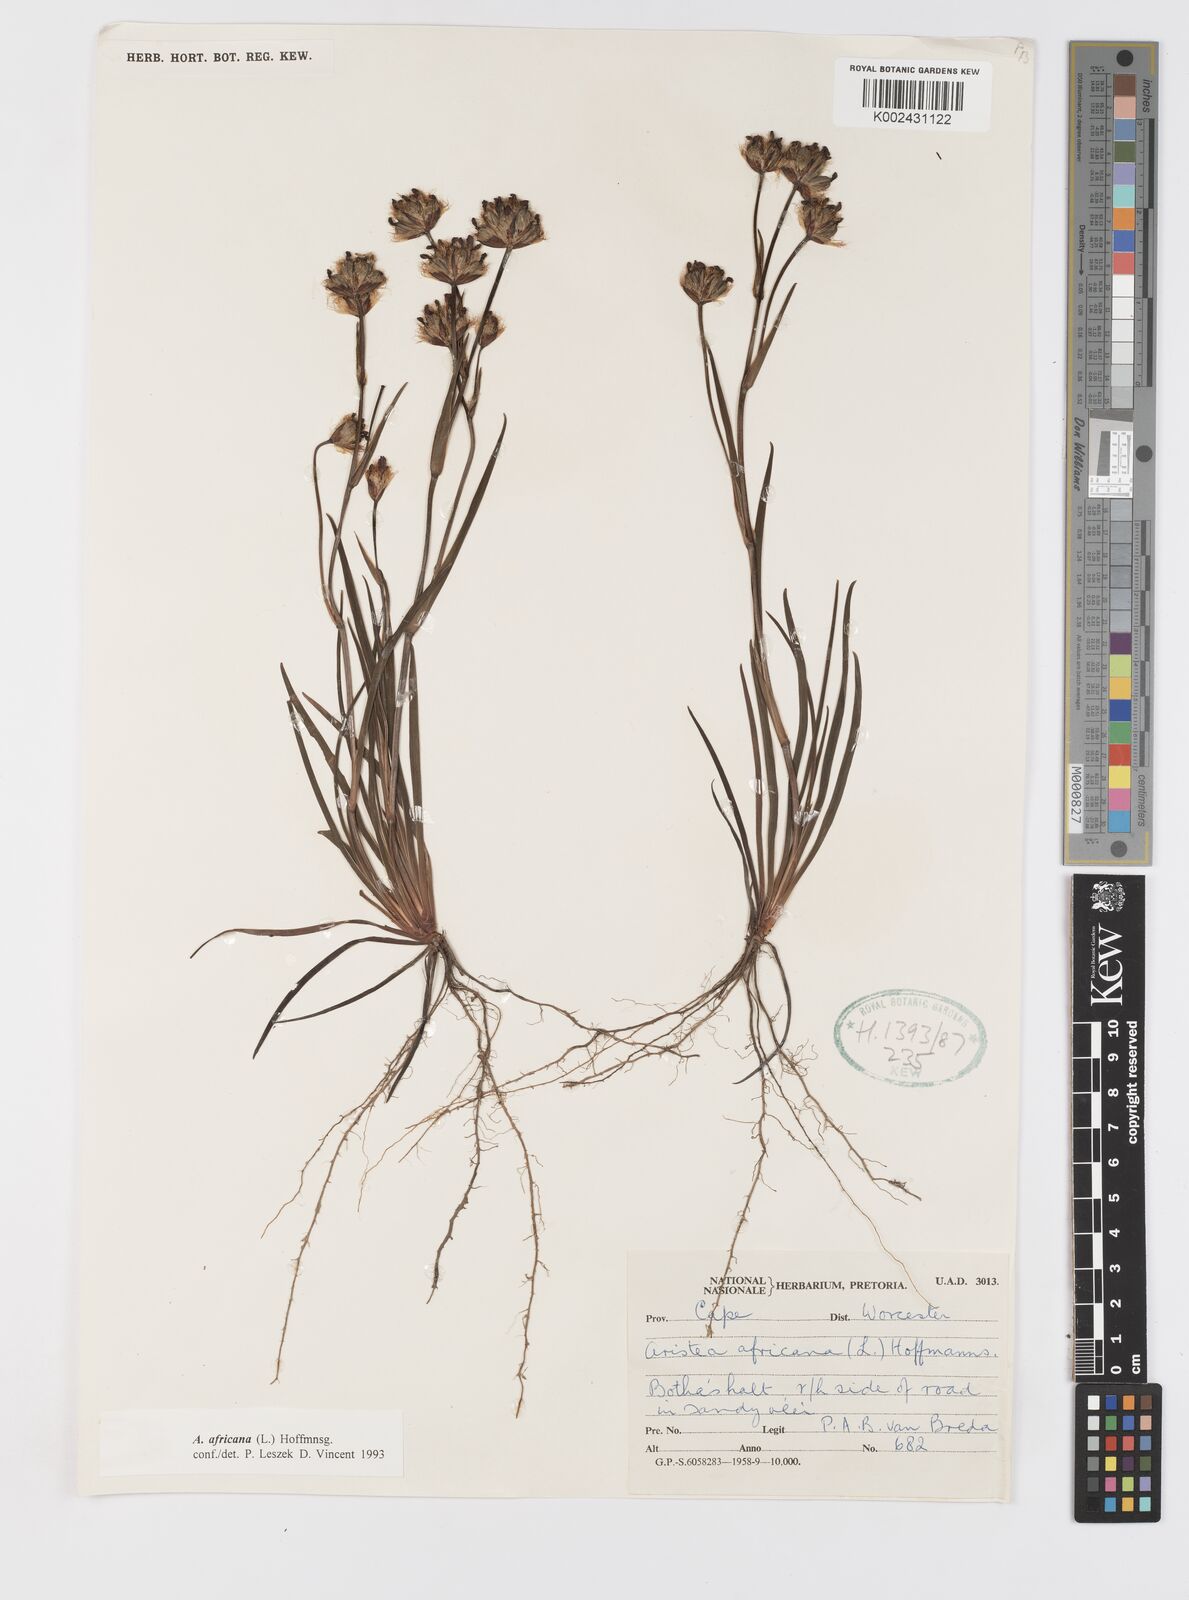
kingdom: Plantae
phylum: Tracheophyta
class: Liliopsida
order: Asparagales
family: Iridaceae
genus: Aristea
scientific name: Aristea africana
